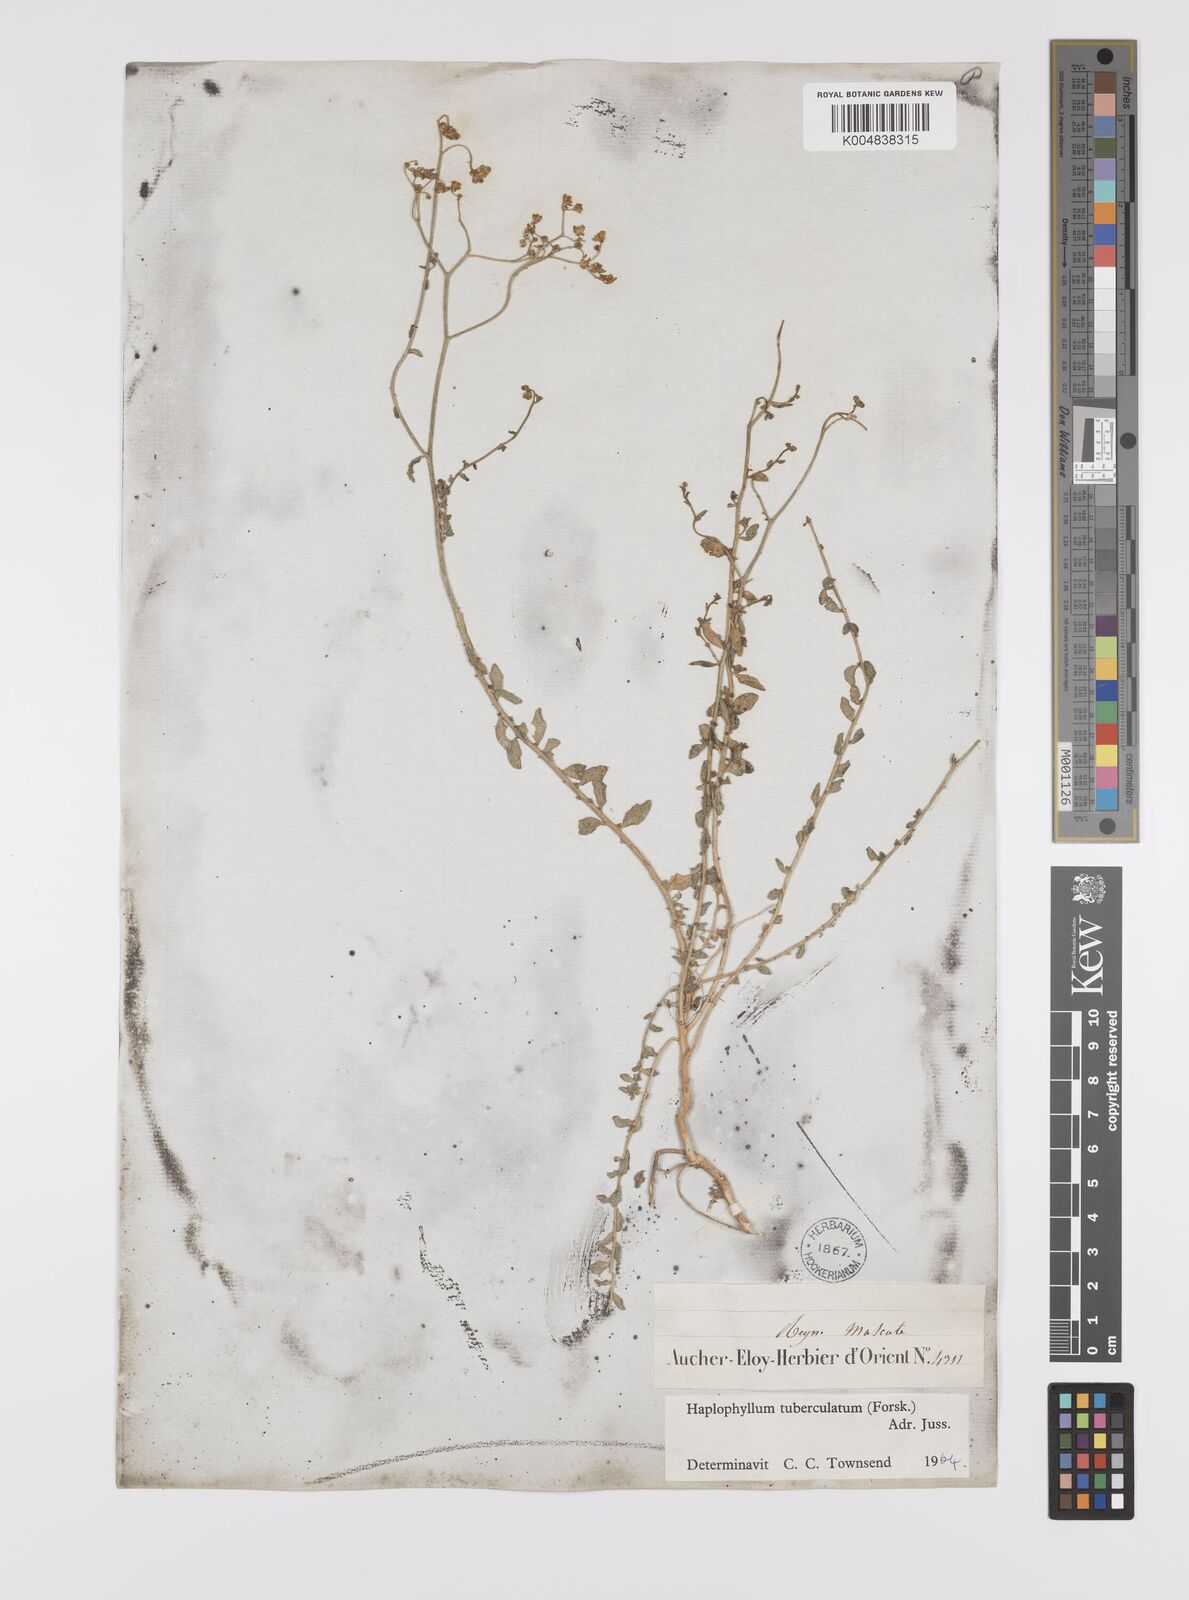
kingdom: Plantae
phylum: Tracheophyta
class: Magnoliopsida
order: Sapindales
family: Rutaceae
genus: Haplophyllum
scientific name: Haplophyllum tuberculatum
